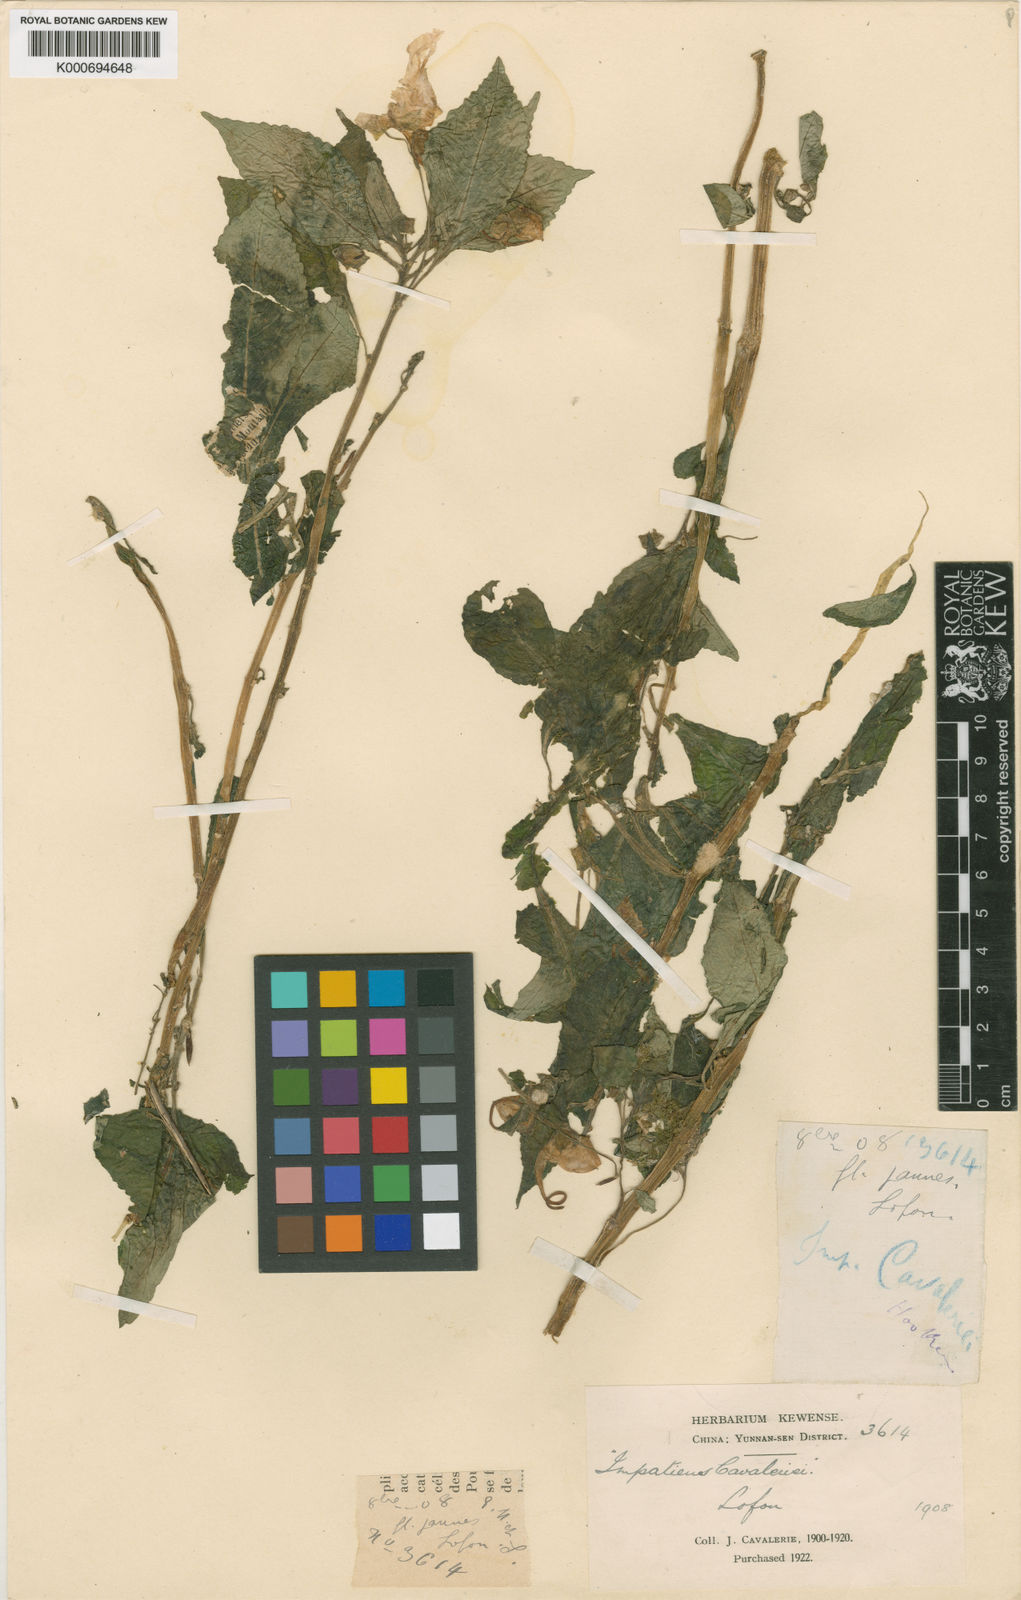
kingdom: Plantae
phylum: Tracheophyta
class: Magnoliopsida
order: Ericales
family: Balsaminaceae
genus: Impatiens
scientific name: Impatiens
